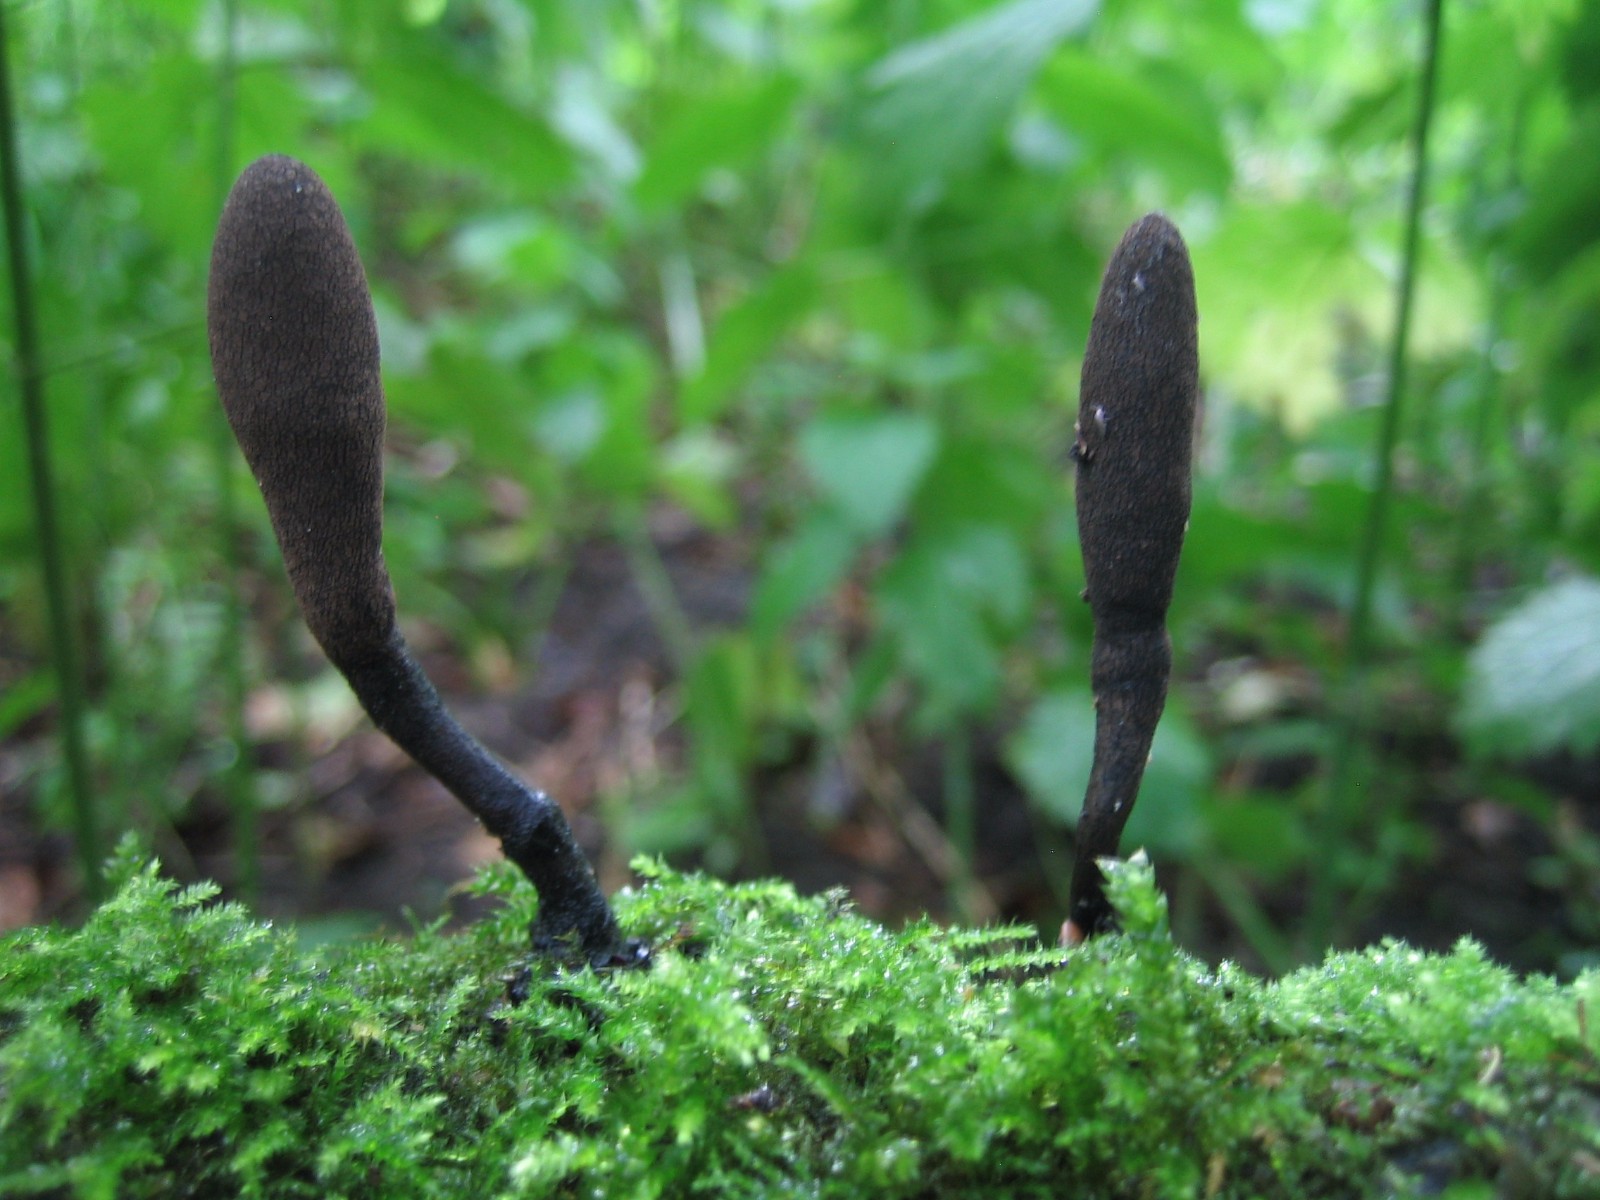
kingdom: Fungi
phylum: Ascomycota
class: Sordariomycetes
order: Xylariales
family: Xylariaceae
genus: Xylaria
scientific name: Xylaria longipes
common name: slank stødsvamp
